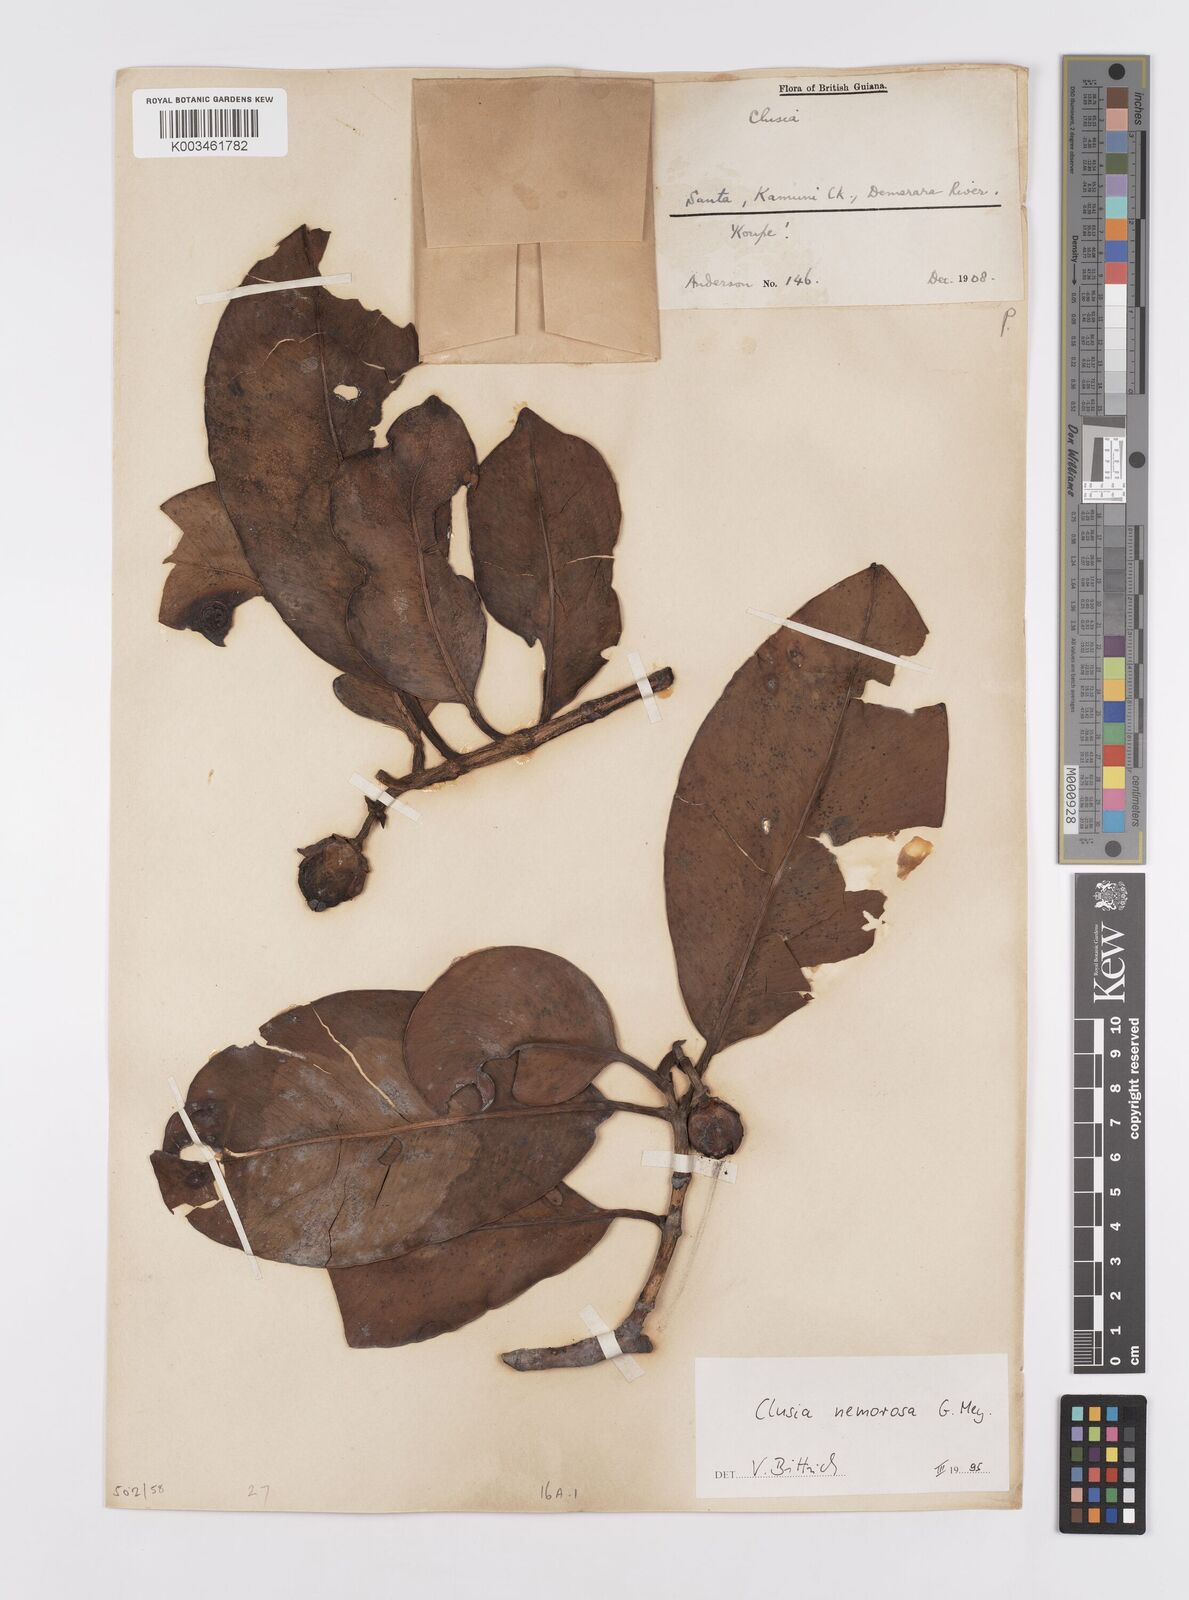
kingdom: Plantae
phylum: Tracheophyta
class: Magnoliopsida
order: Malpighiales
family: Clusiaceae
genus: Clusia
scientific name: Clusia nemorosa
